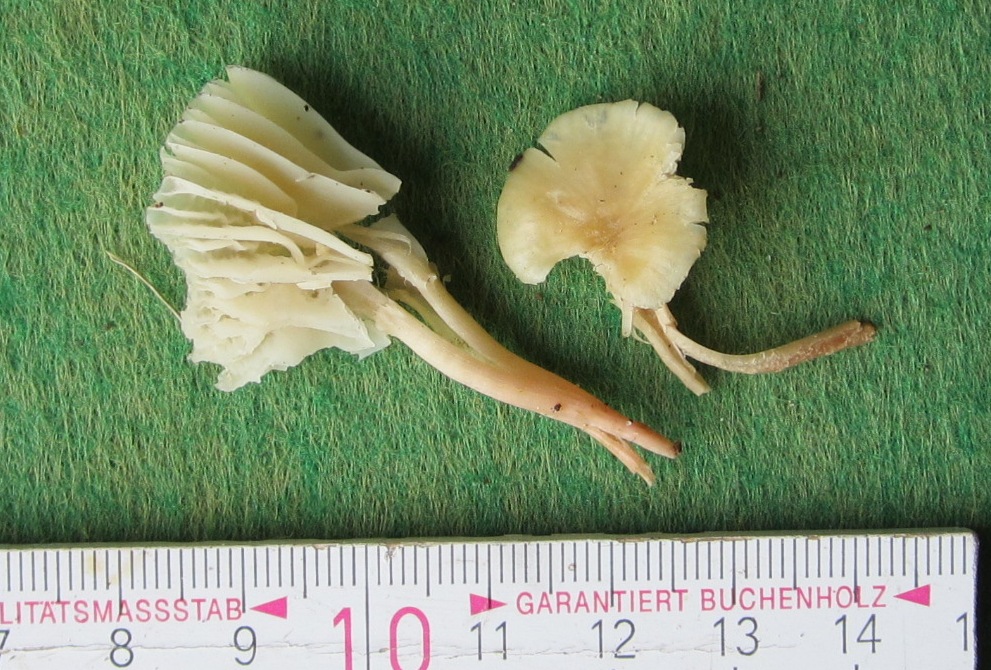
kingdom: Fungi
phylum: Basidiomycota
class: Agaricomycetes
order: Agaricales
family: Hygrophoraceae
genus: Cuphophyllus
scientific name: Cuphophyllus russocoriaceus
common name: ruslæder-vokshat
